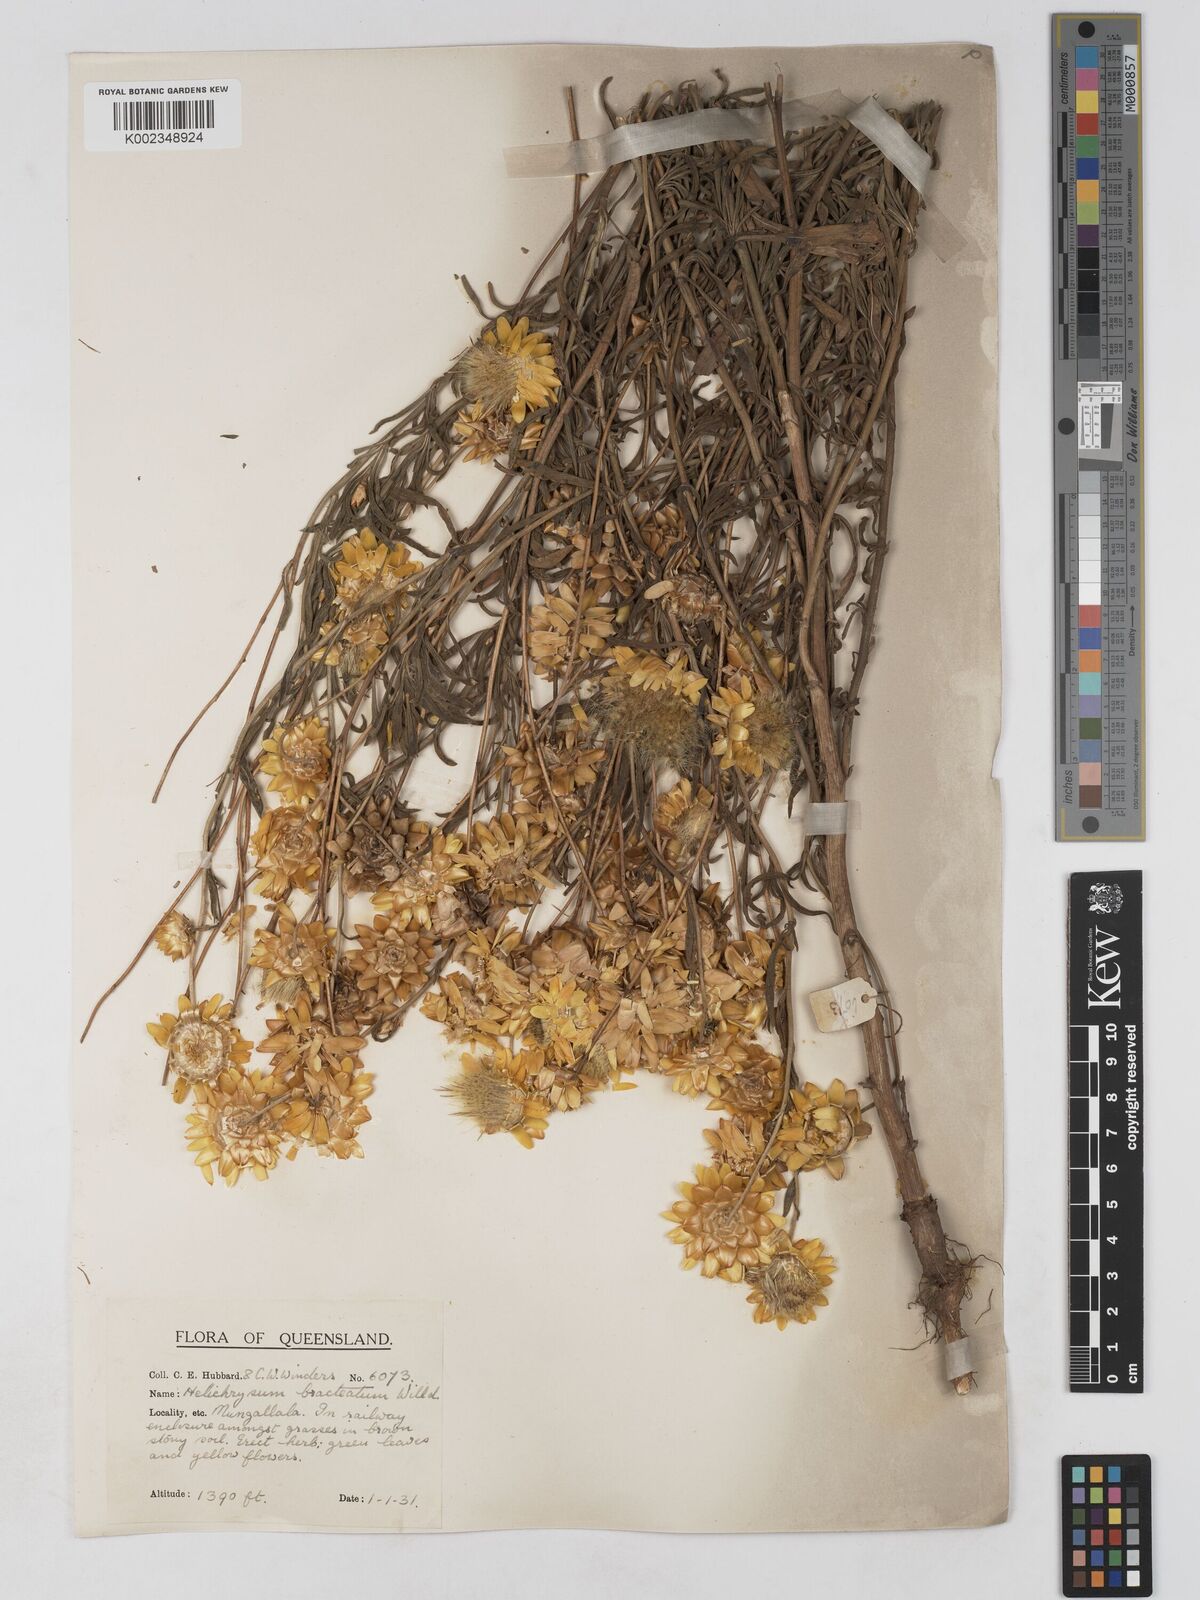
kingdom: Plantae
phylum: Tracheophyta
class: Magnoliopsida
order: Asterales
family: Asteraceae
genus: Xerochrysum
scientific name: Xerochrysum bracteatum
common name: Bracted strawflower
